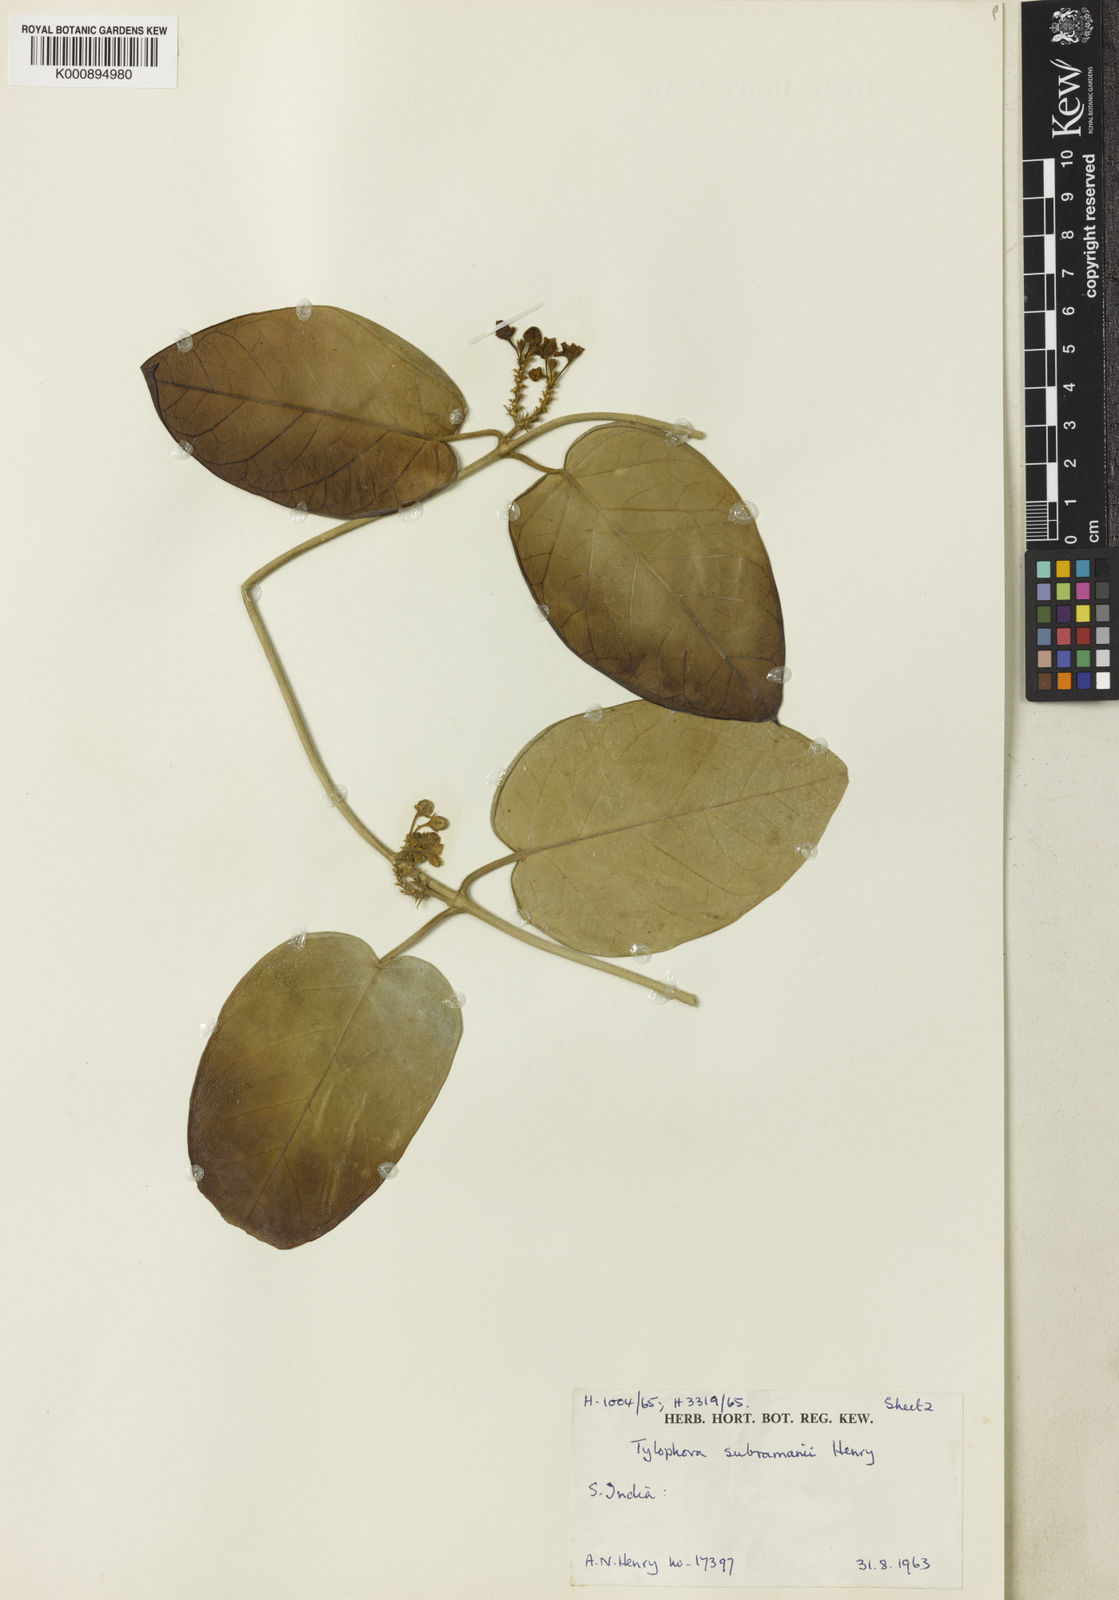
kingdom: Plantae
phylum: Tracheophyta
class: Magnoliopsida
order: Gentianales
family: Apocynaceae
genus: Vincetoxicum
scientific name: Vincetoxicum subramanii
